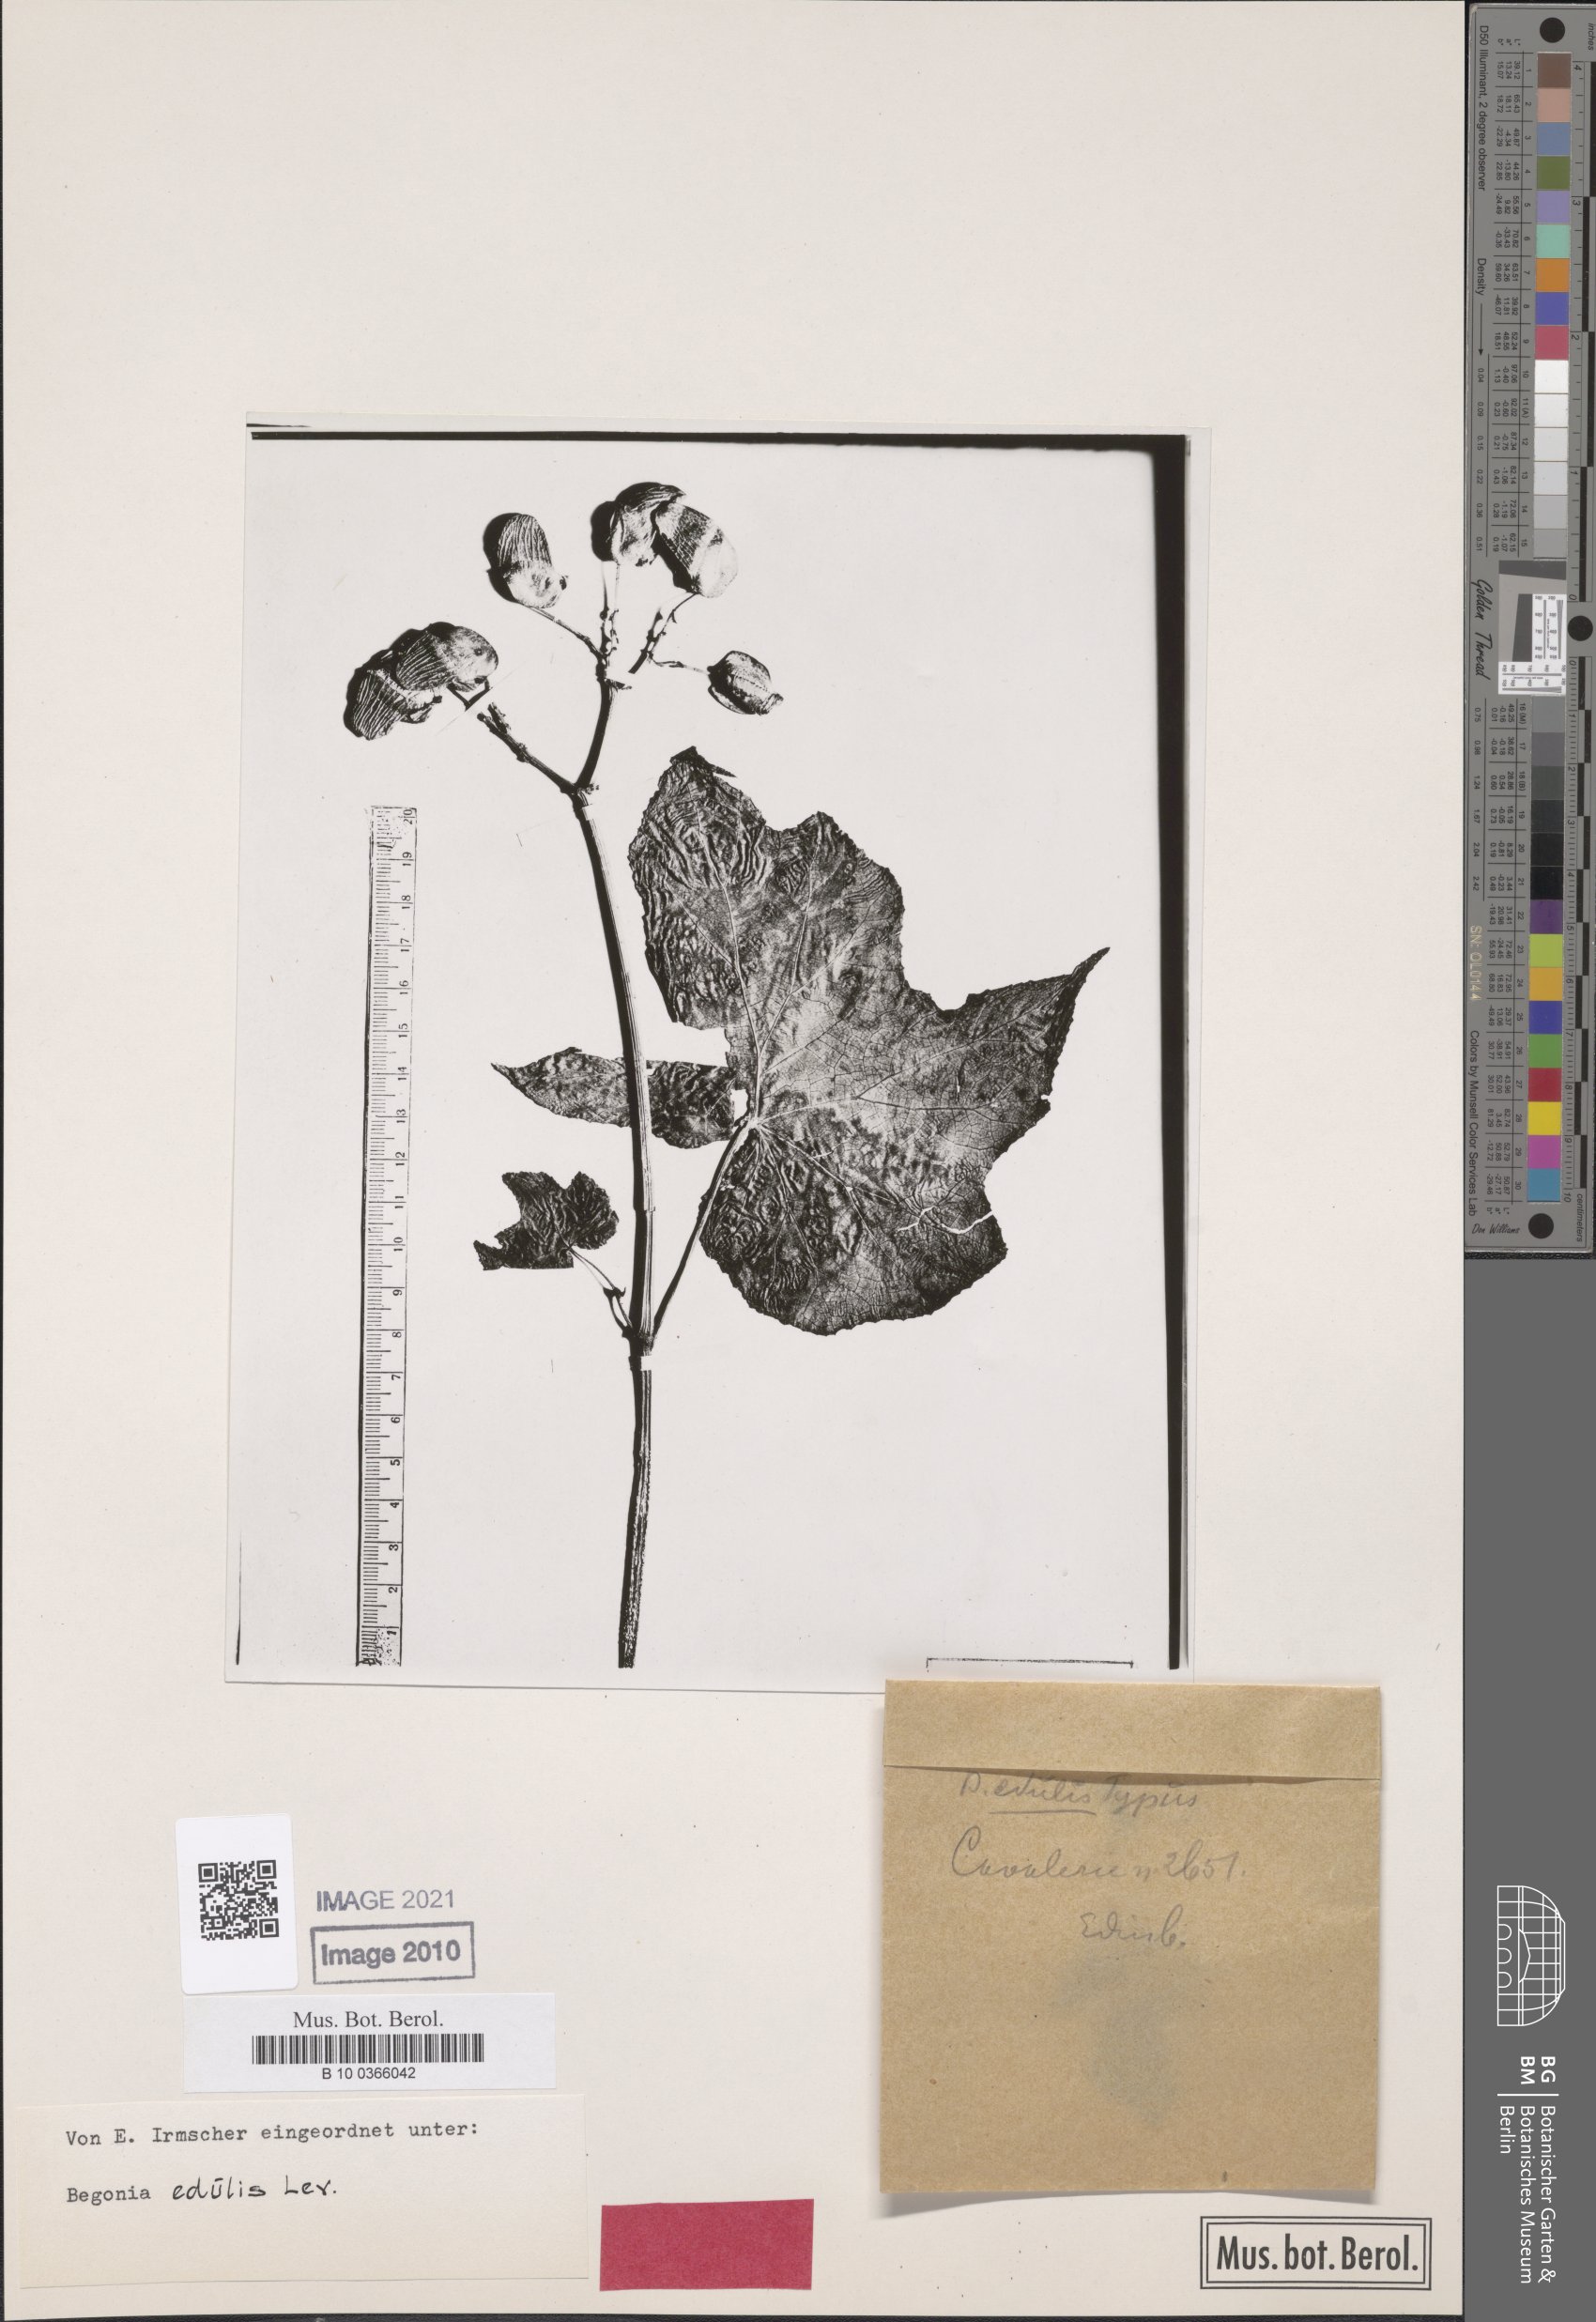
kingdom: Plantae
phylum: Tracheophyta
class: Magnoliopsida
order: Cucurbitales
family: Begoniaceae
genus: Begonia
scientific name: Begonia edulis
